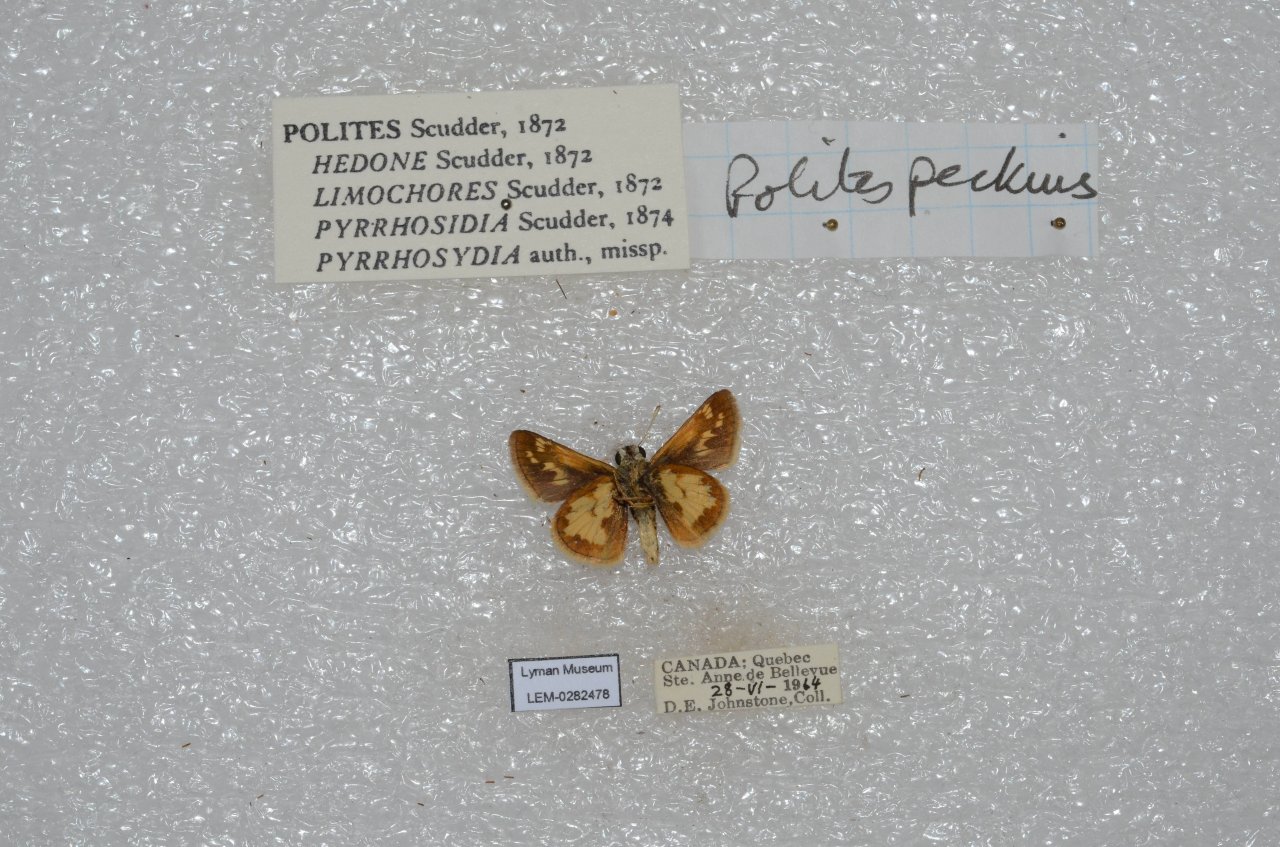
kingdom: Animalia
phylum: Arthropoda
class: Insecta
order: Lepidoptera
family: Hesperiidae
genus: Polites
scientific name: Polites coras
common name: Peck's Skipper
